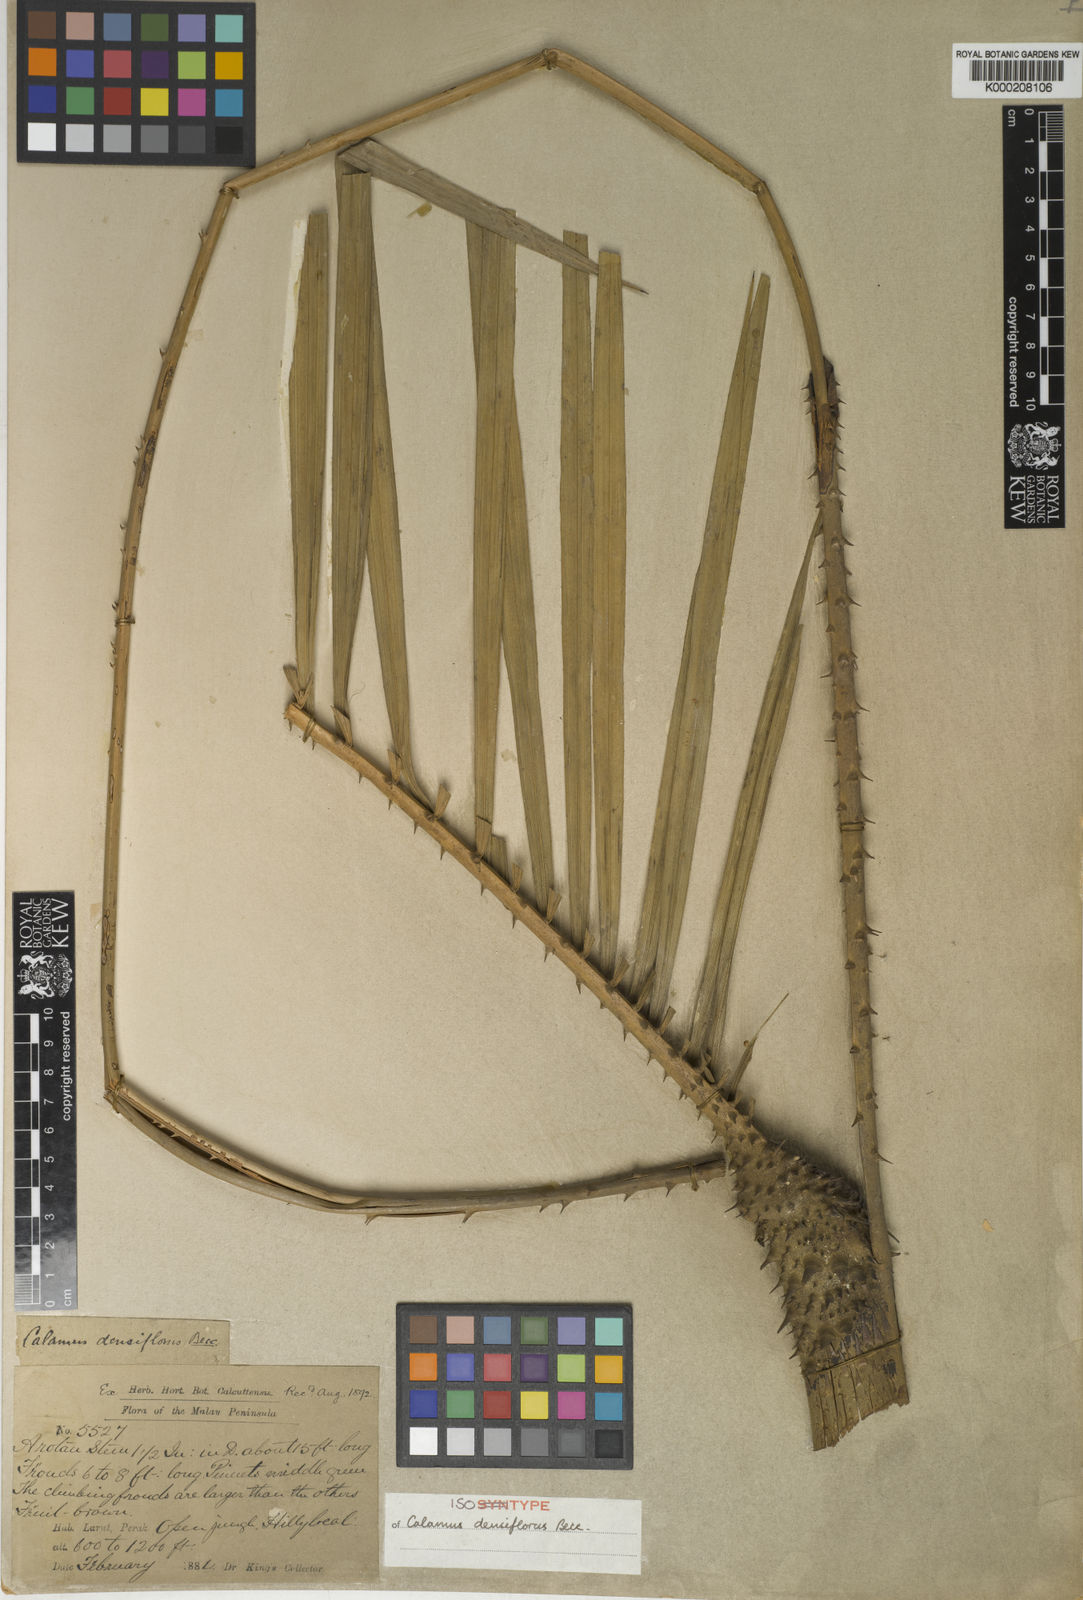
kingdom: Plantae
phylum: Tracheophyta
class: Liliopsida
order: Arecales
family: Arecaceae
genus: Calamus
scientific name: Calamus densiflorus
